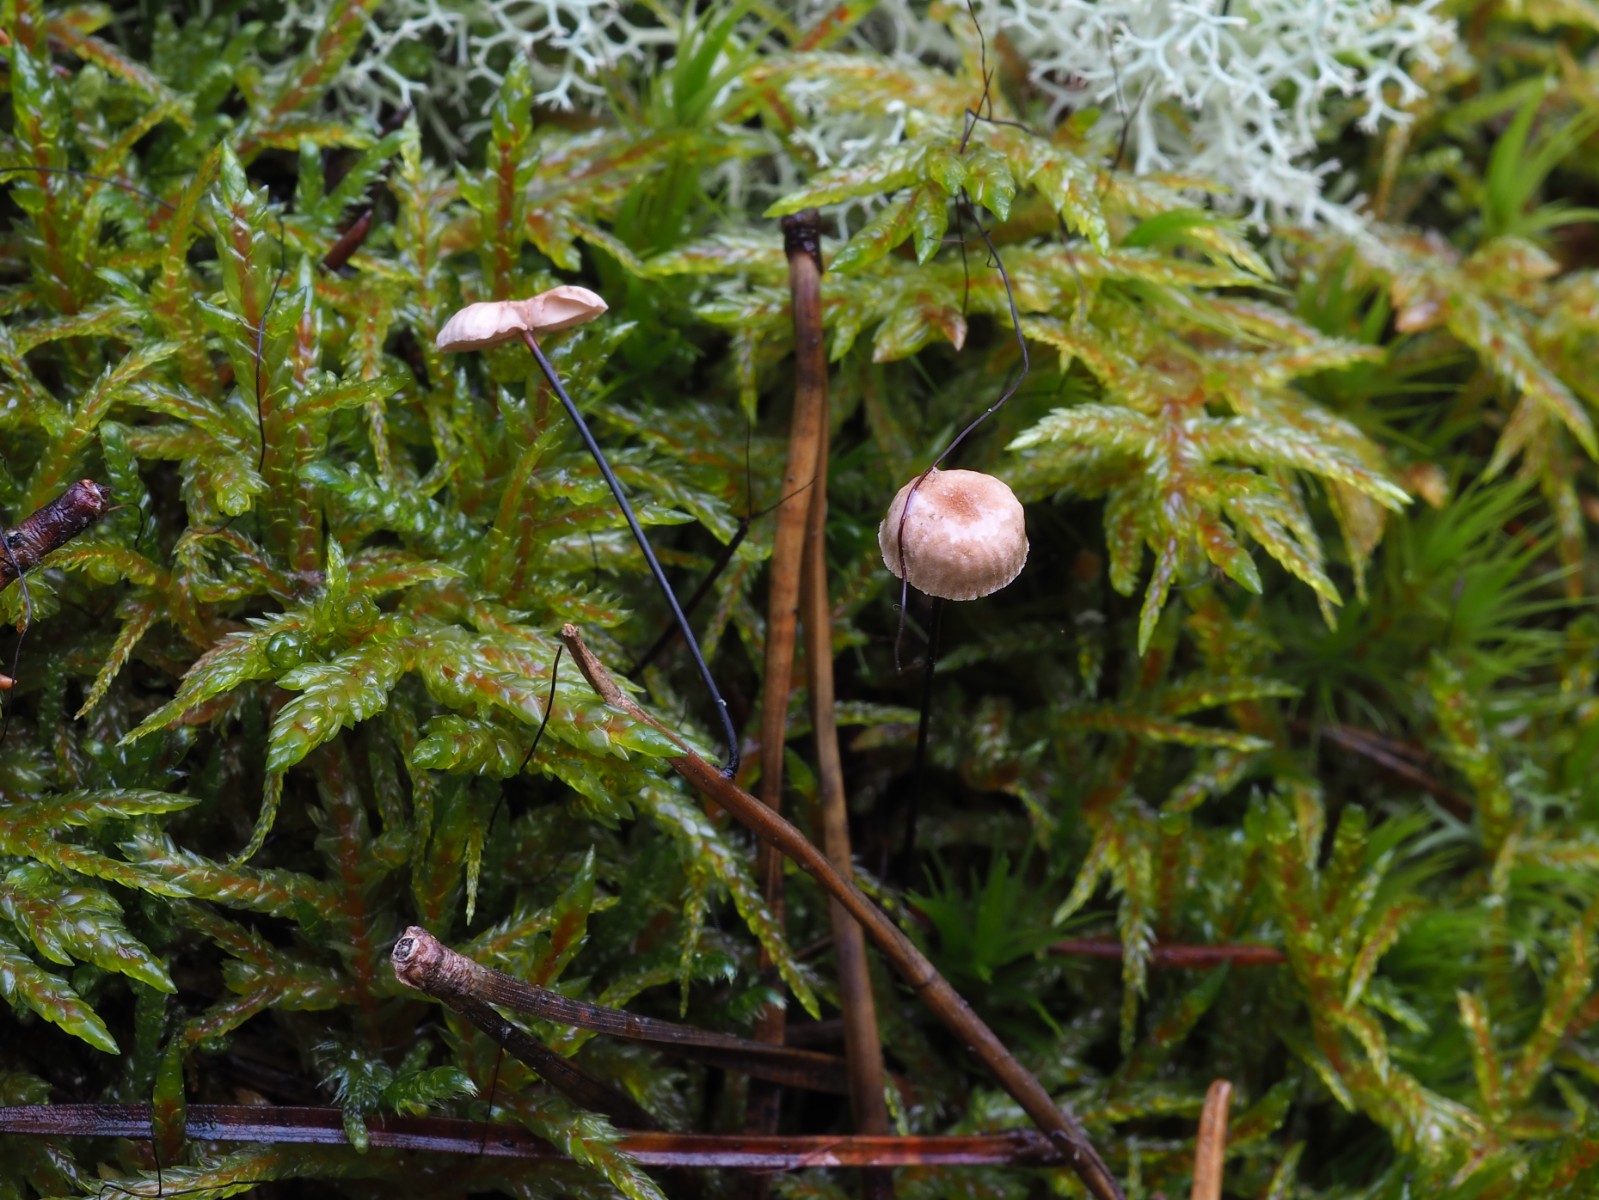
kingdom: Fungi
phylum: Basidiomycota
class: Agaricomycetes
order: Agaricales
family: Omphalotaceae
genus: Gymnopus
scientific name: Gymnopus androsaceus
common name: trådstokket fladhat
